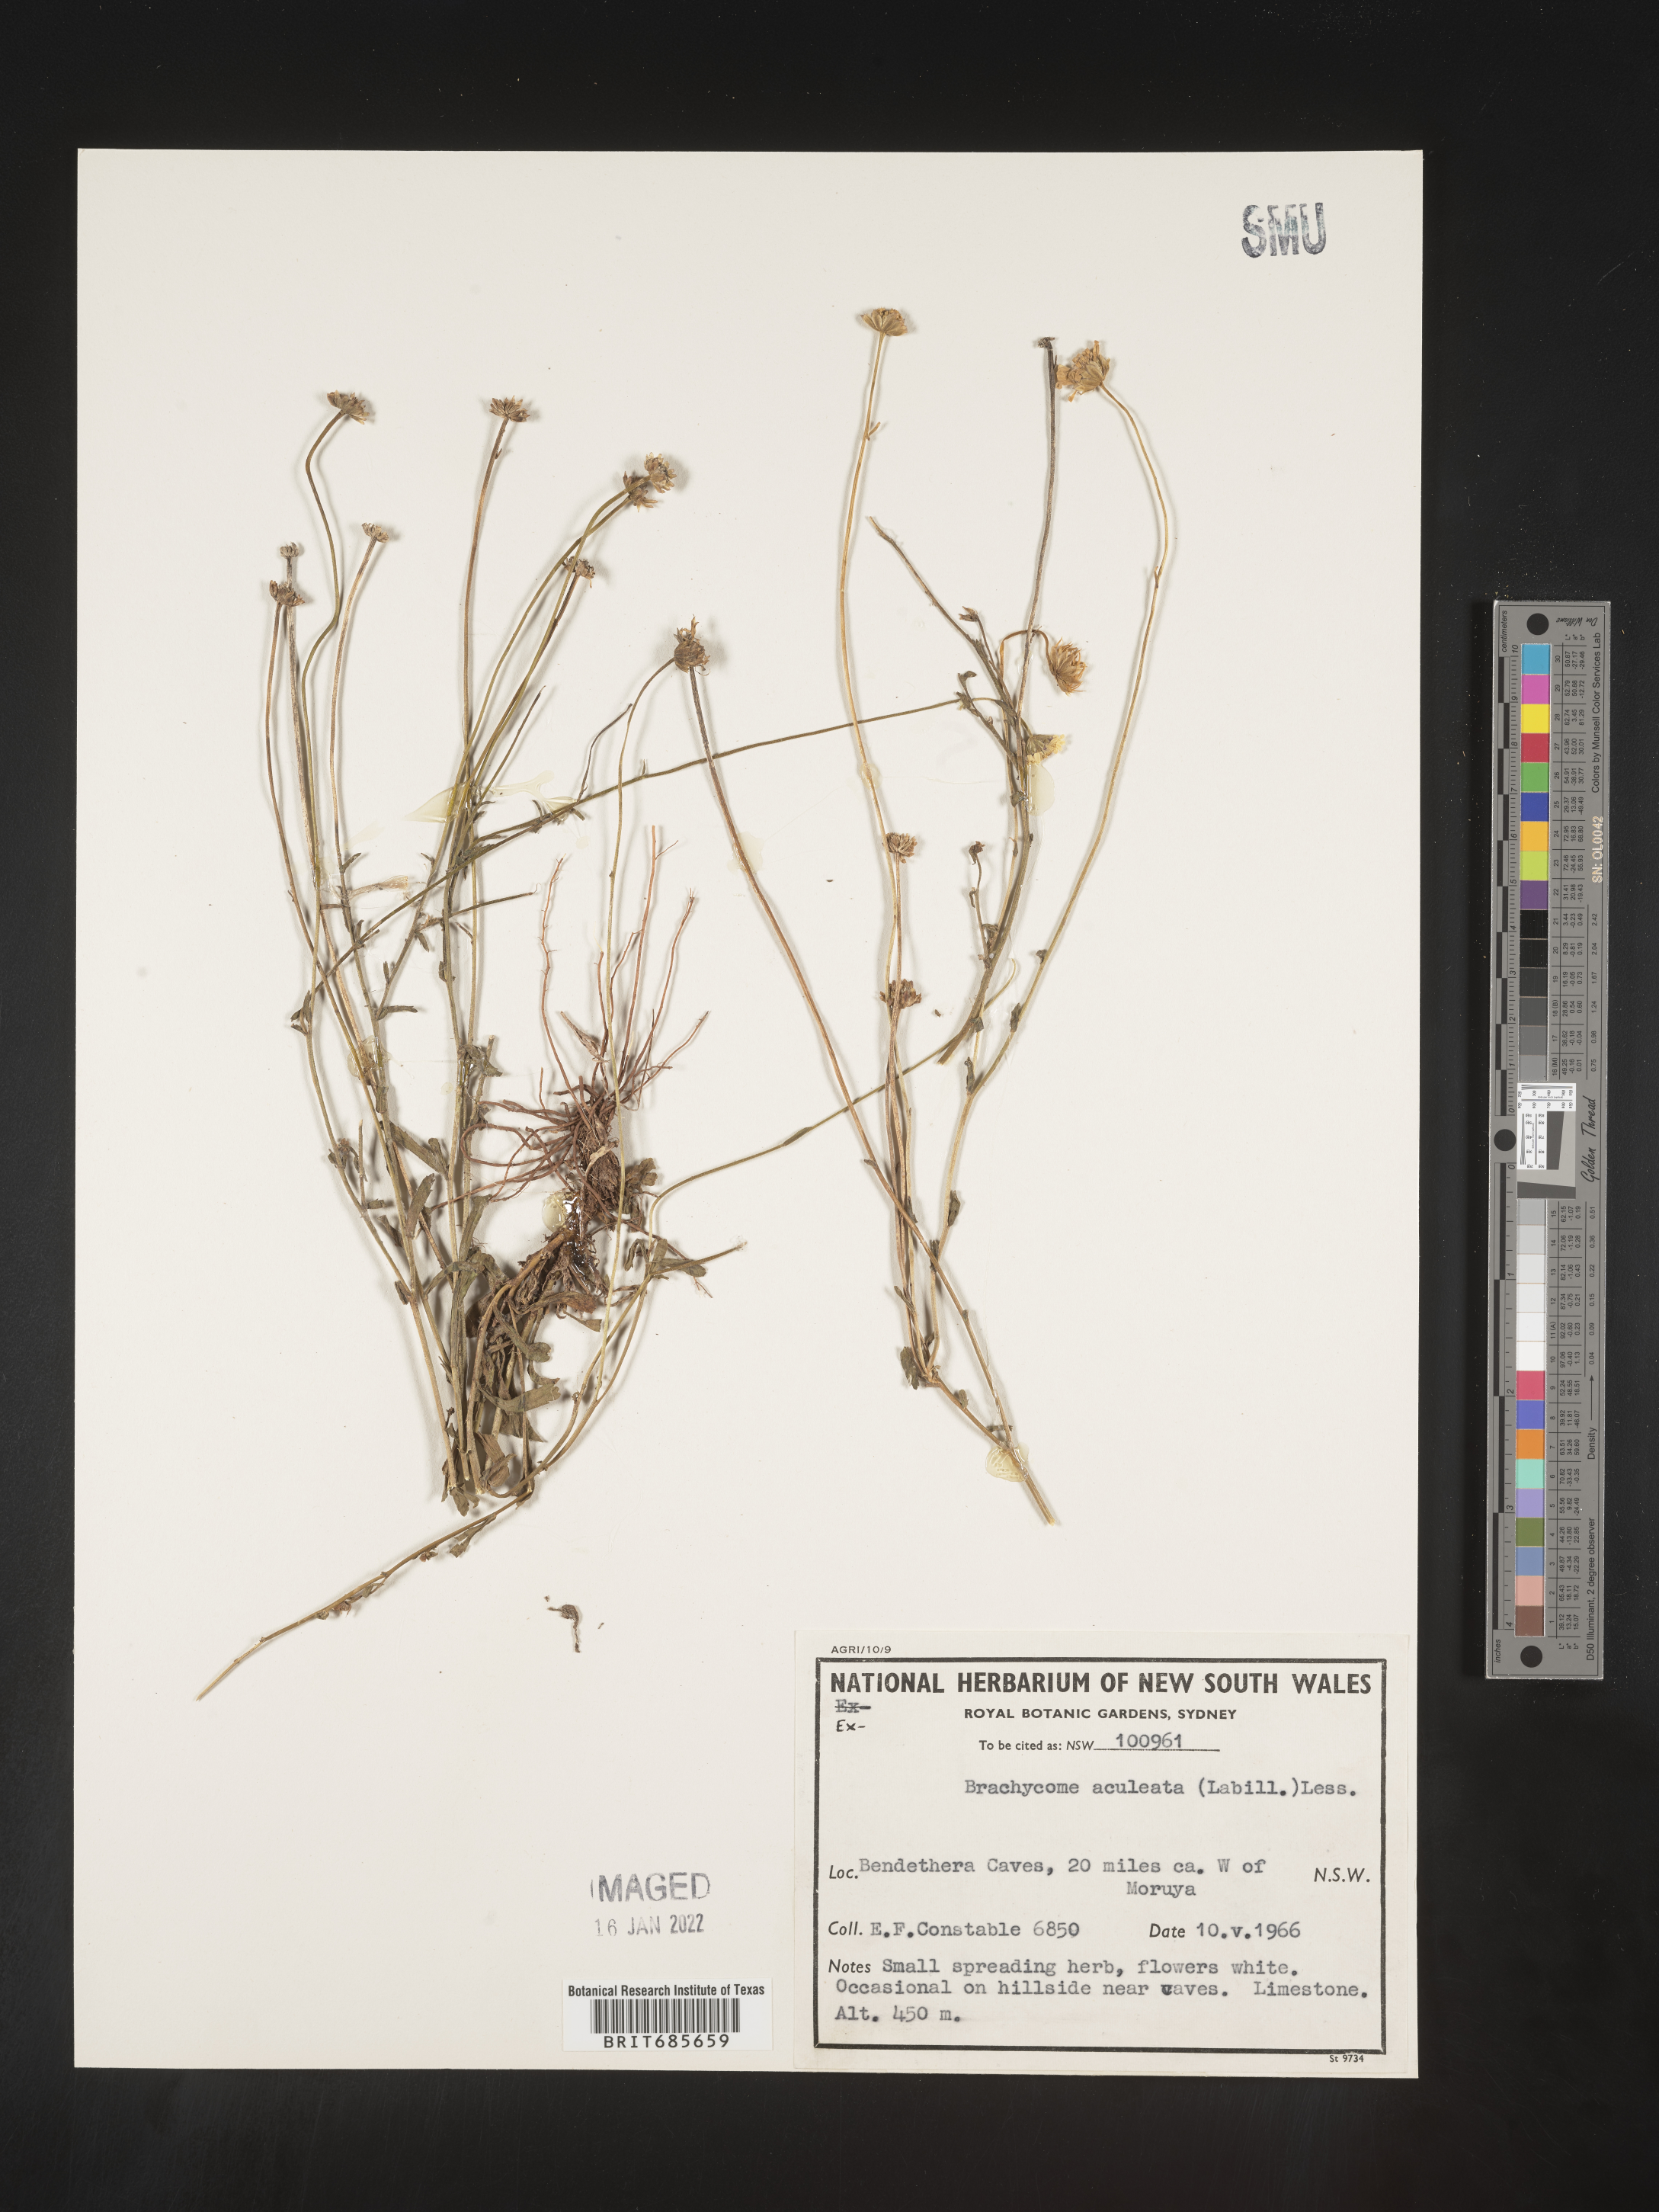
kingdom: Plantae
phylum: Tracheophyta
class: Magnoliopsida
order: Asterales
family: Asteraceae
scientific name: Asteraceae
